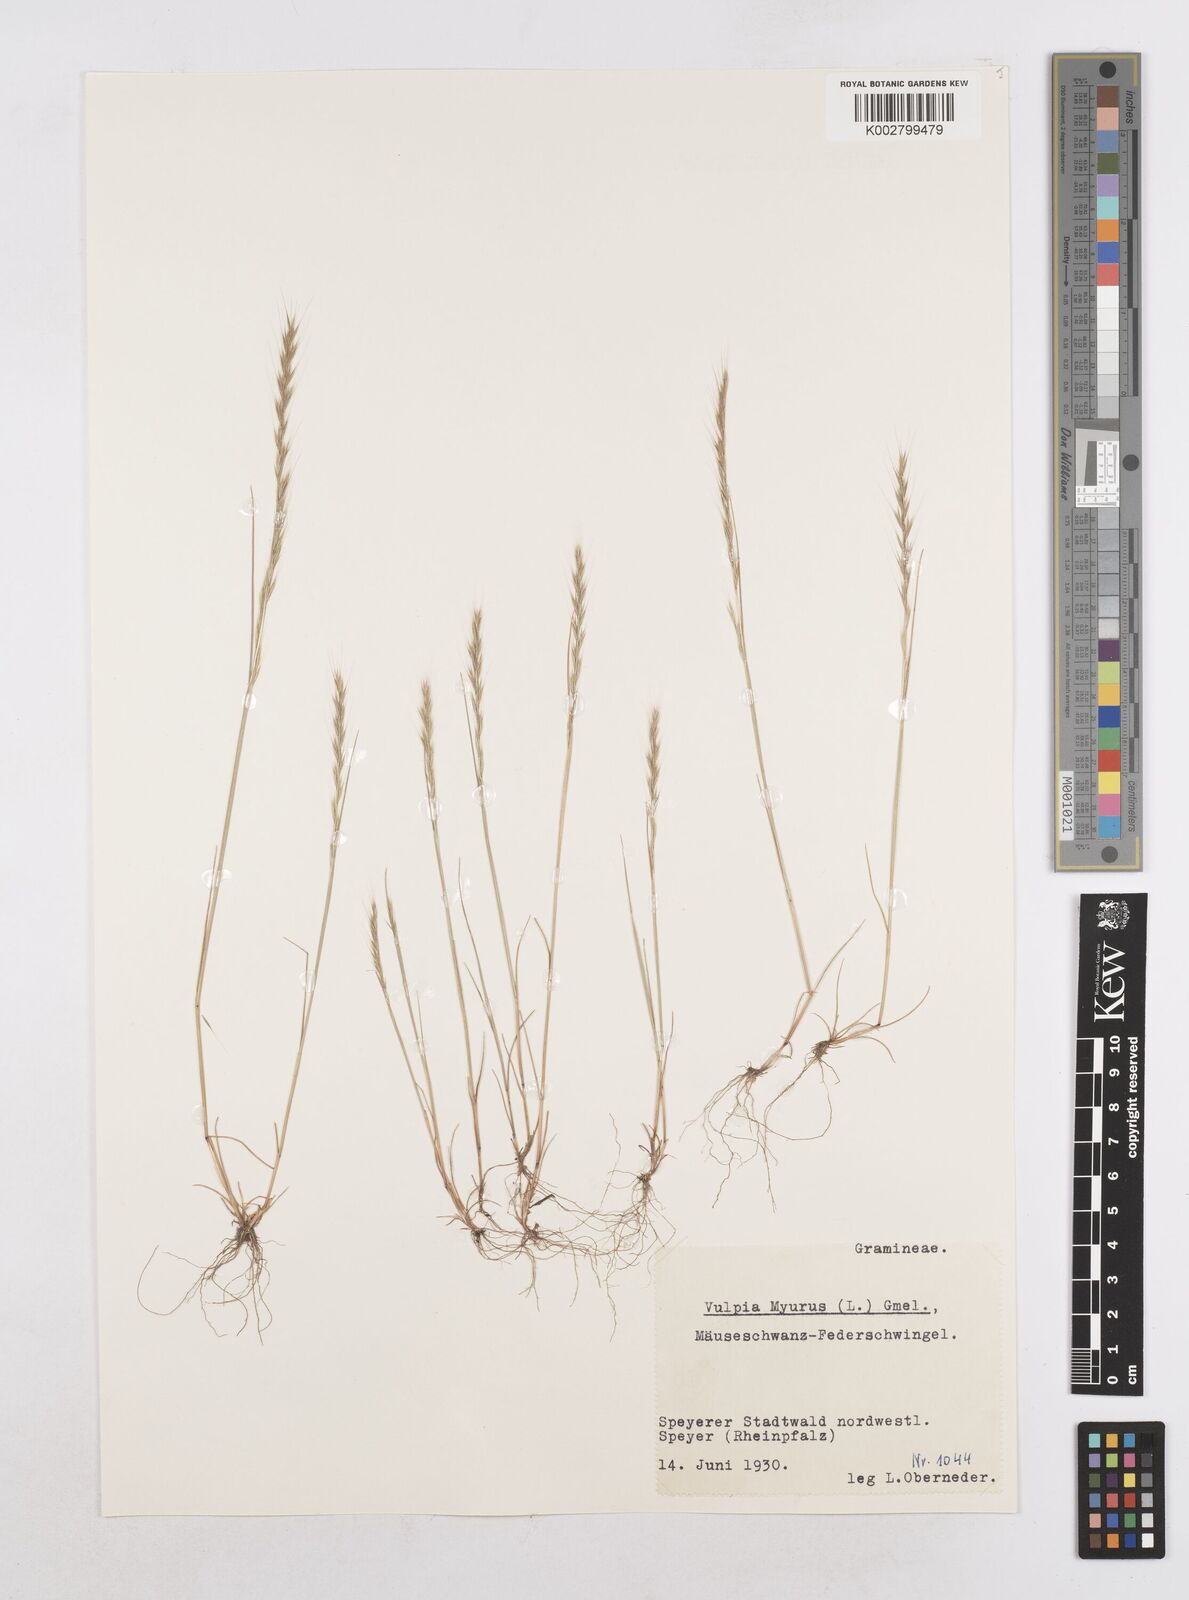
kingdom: Plantae
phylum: Tracheophyta
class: Liliopsida
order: Poales
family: Poaceae
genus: Festuca
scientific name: Festuca myuros
